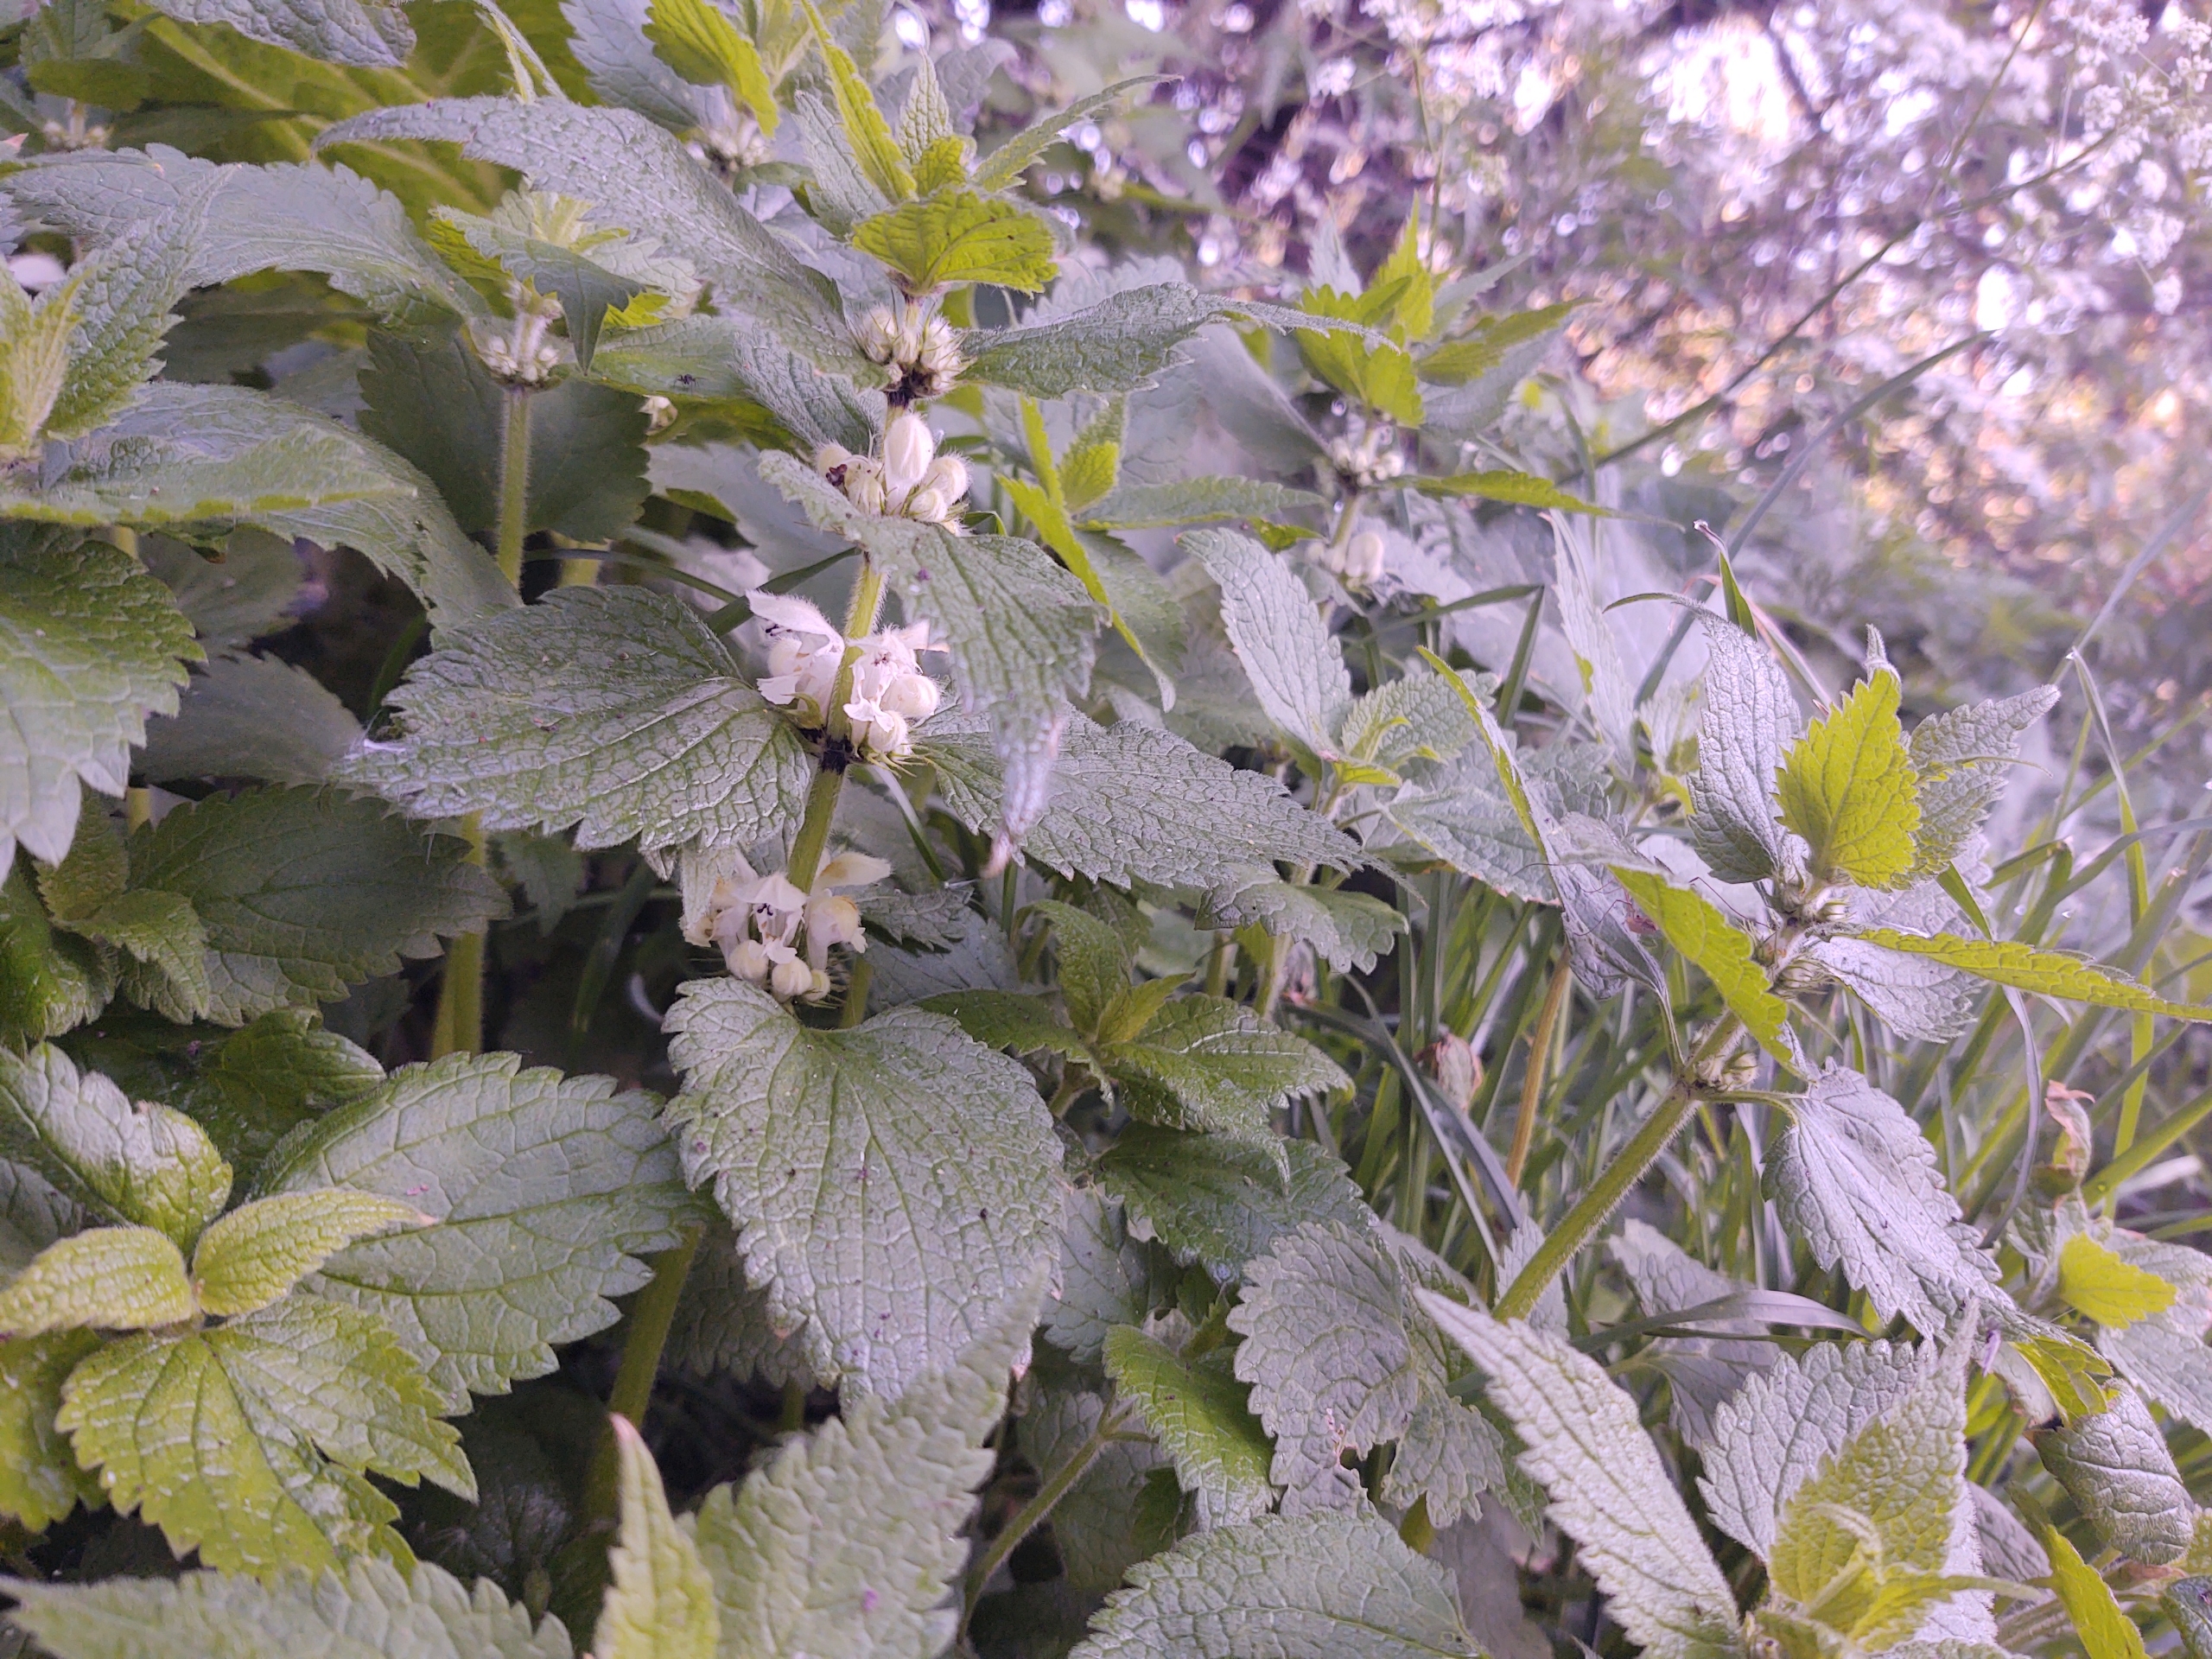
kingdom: Plantae
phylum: Tracheophyta
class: Magnoliopsida
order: Lamiales
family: Lamiaceae
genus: Lamium
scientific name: Lamium album
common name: Døvnælde
